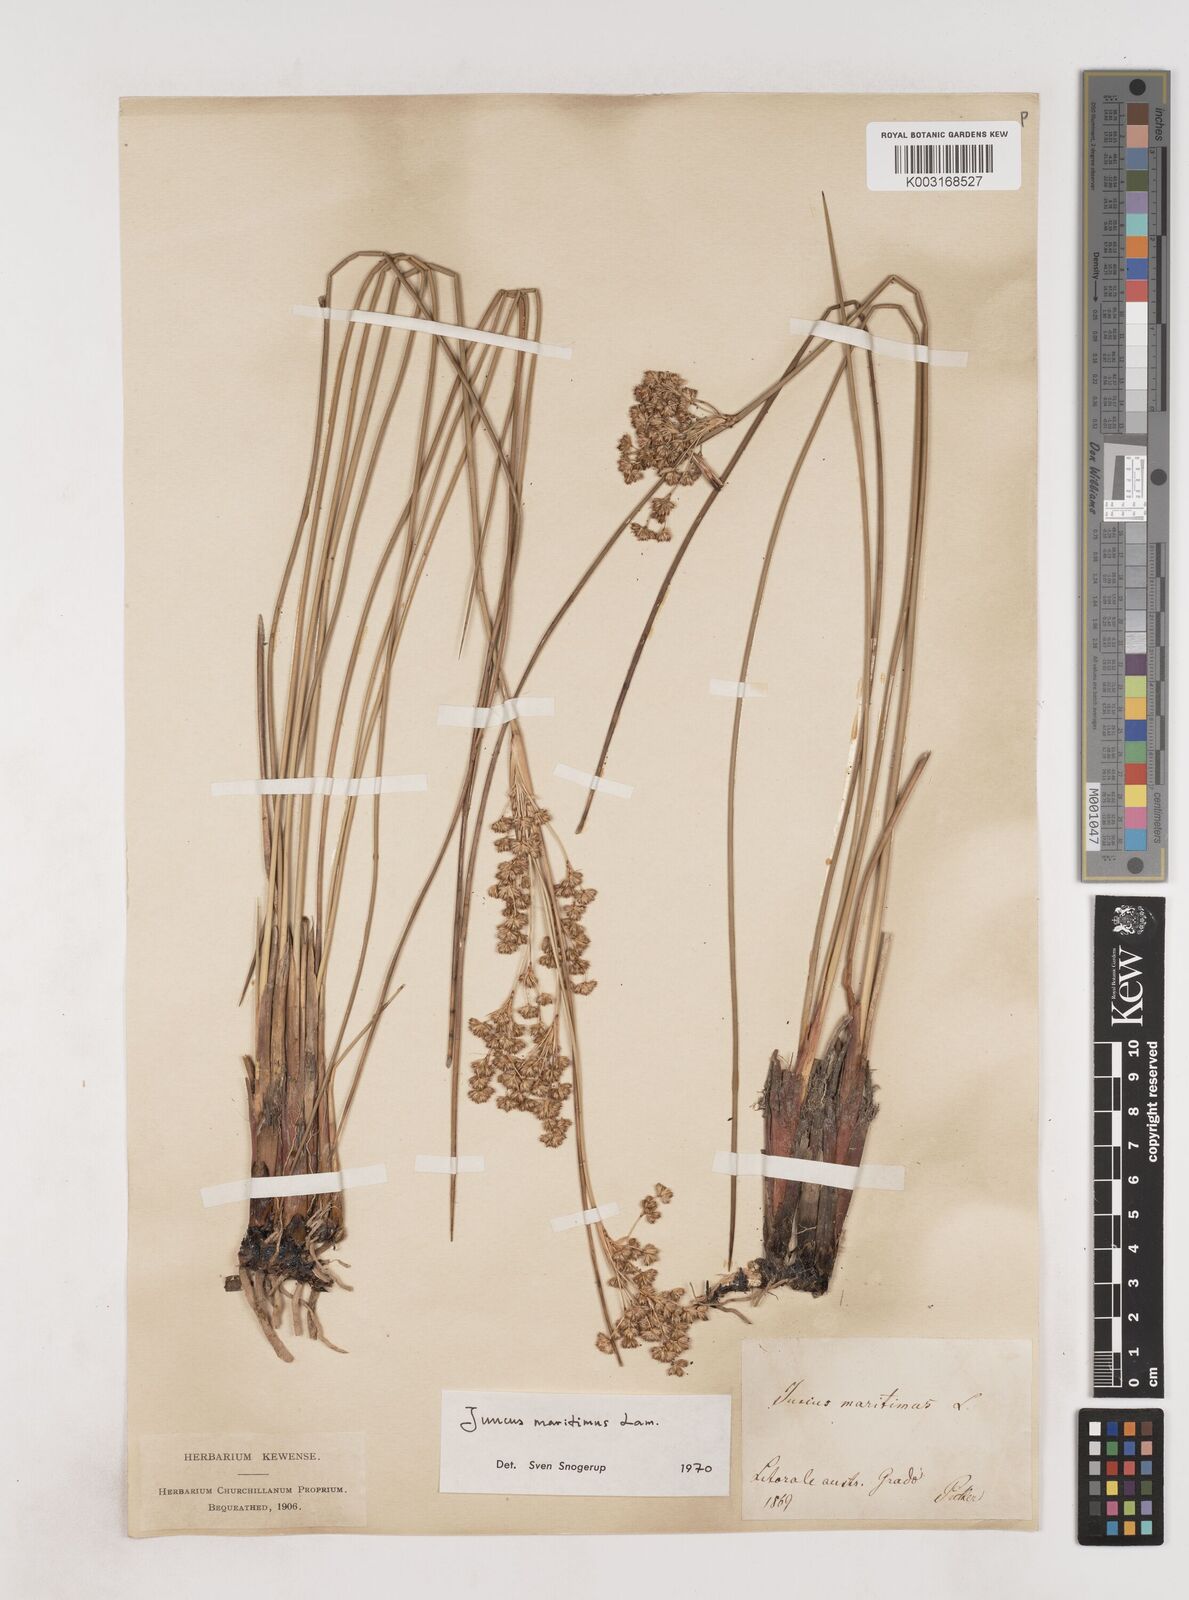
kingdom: Plantae
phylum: Tracheophyta
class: Liliopsida
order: Poales
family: Juncaceae
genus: Juncus
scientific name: Juncus maritimus
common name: Sea rush
